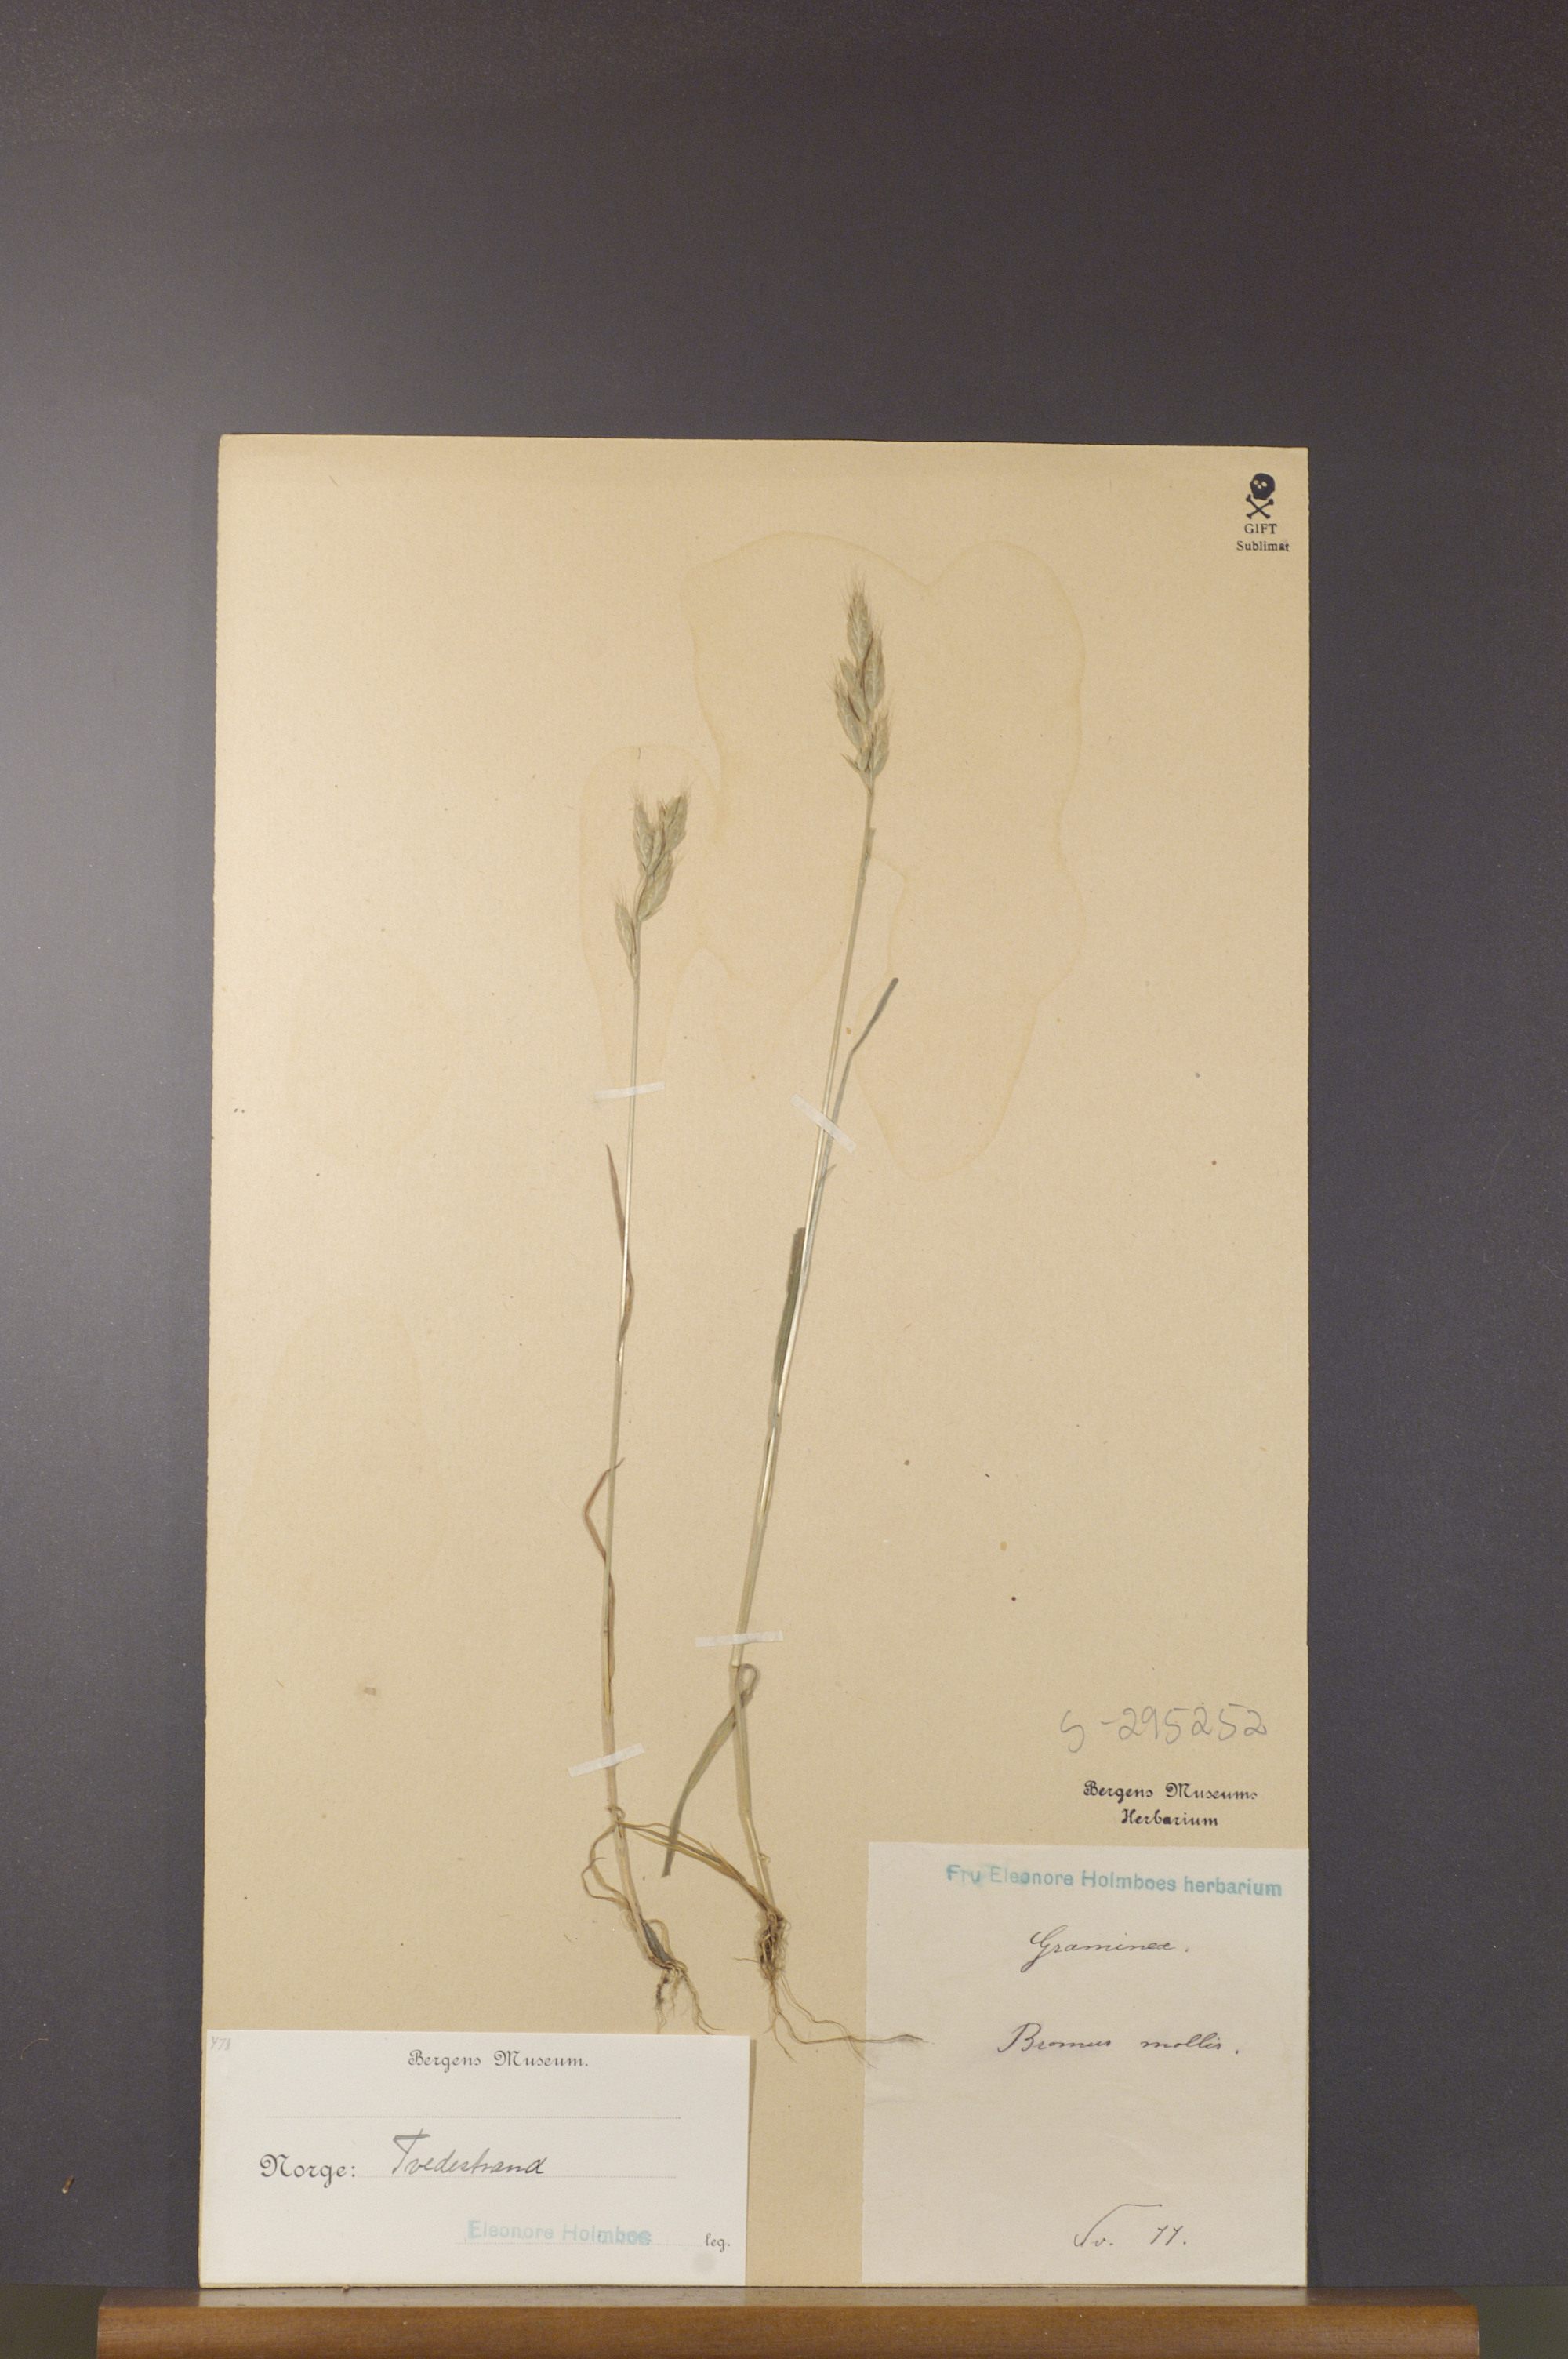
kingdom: Plantae
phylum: Tracheophyta
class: Liliopsida
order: Poales
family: Poaceae
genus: Bromus
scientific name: Bromus hordeaceus
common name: Soft brome
